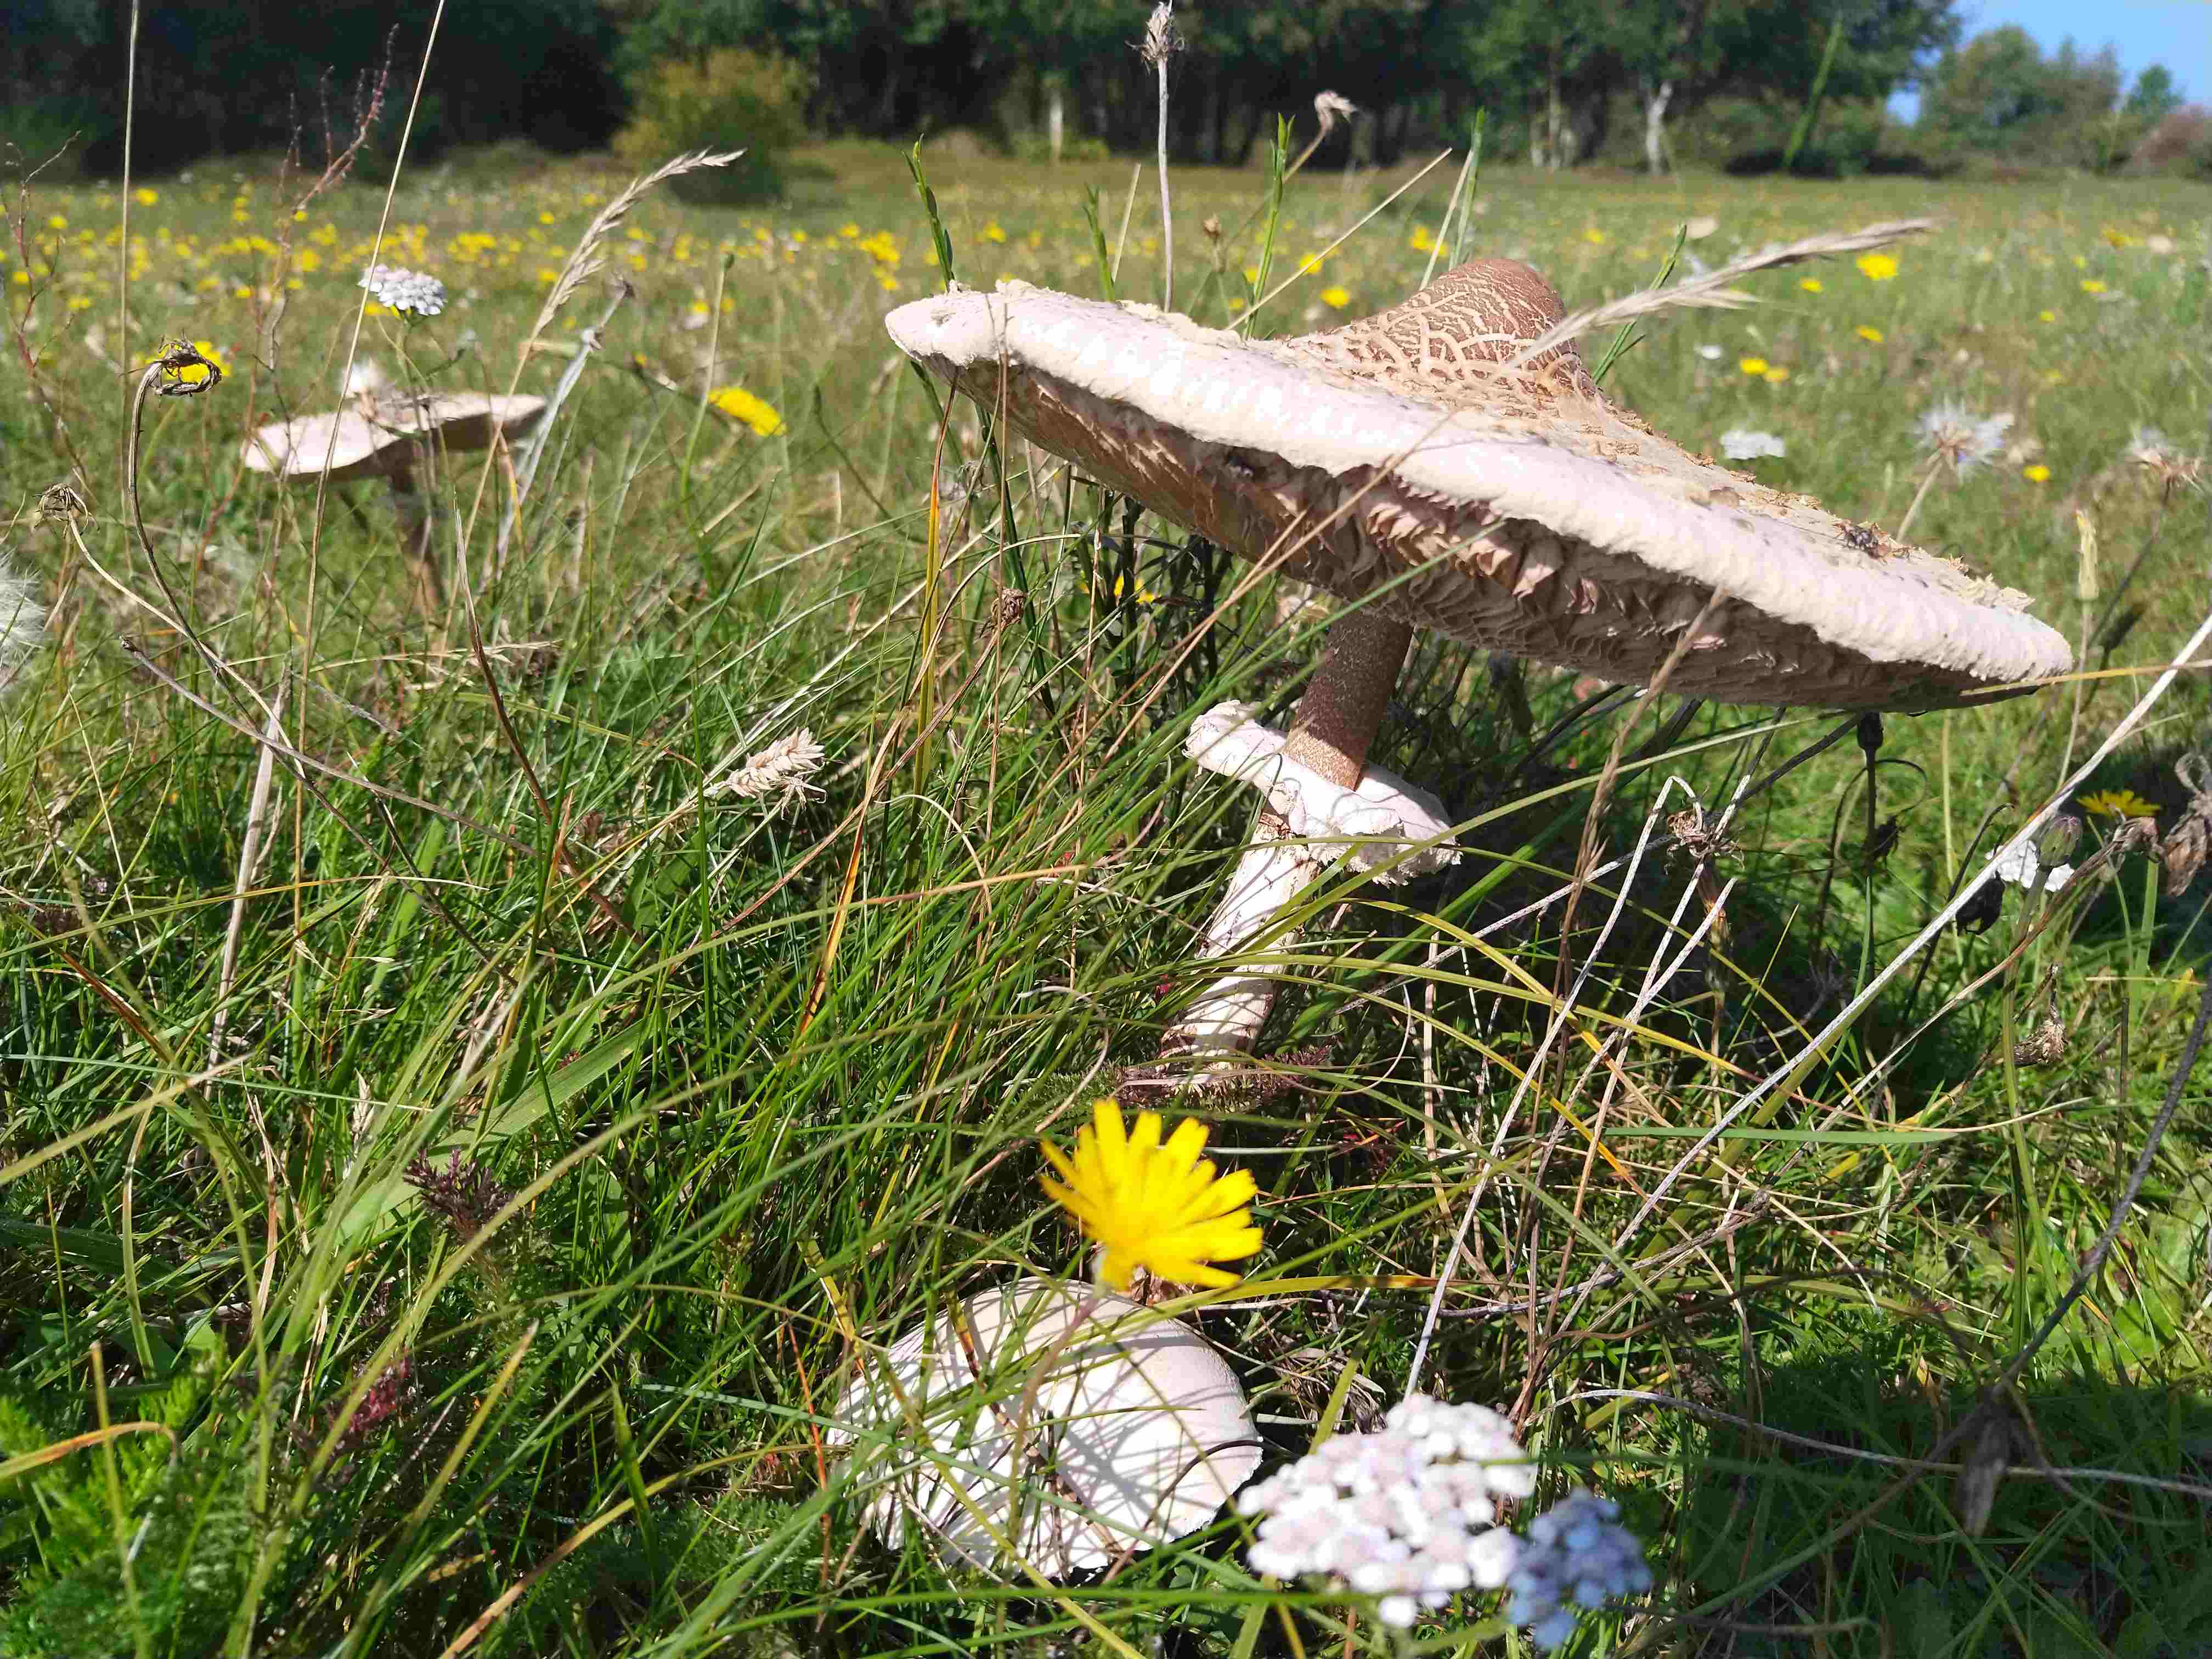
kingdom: Fungi
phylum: Basidiomycota
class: Agaricomycetes
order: Agaricales
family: Agaricaceae
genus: Macrolepiota
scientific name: Macrolepiota procera
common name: stor kæmpeparasolhat
